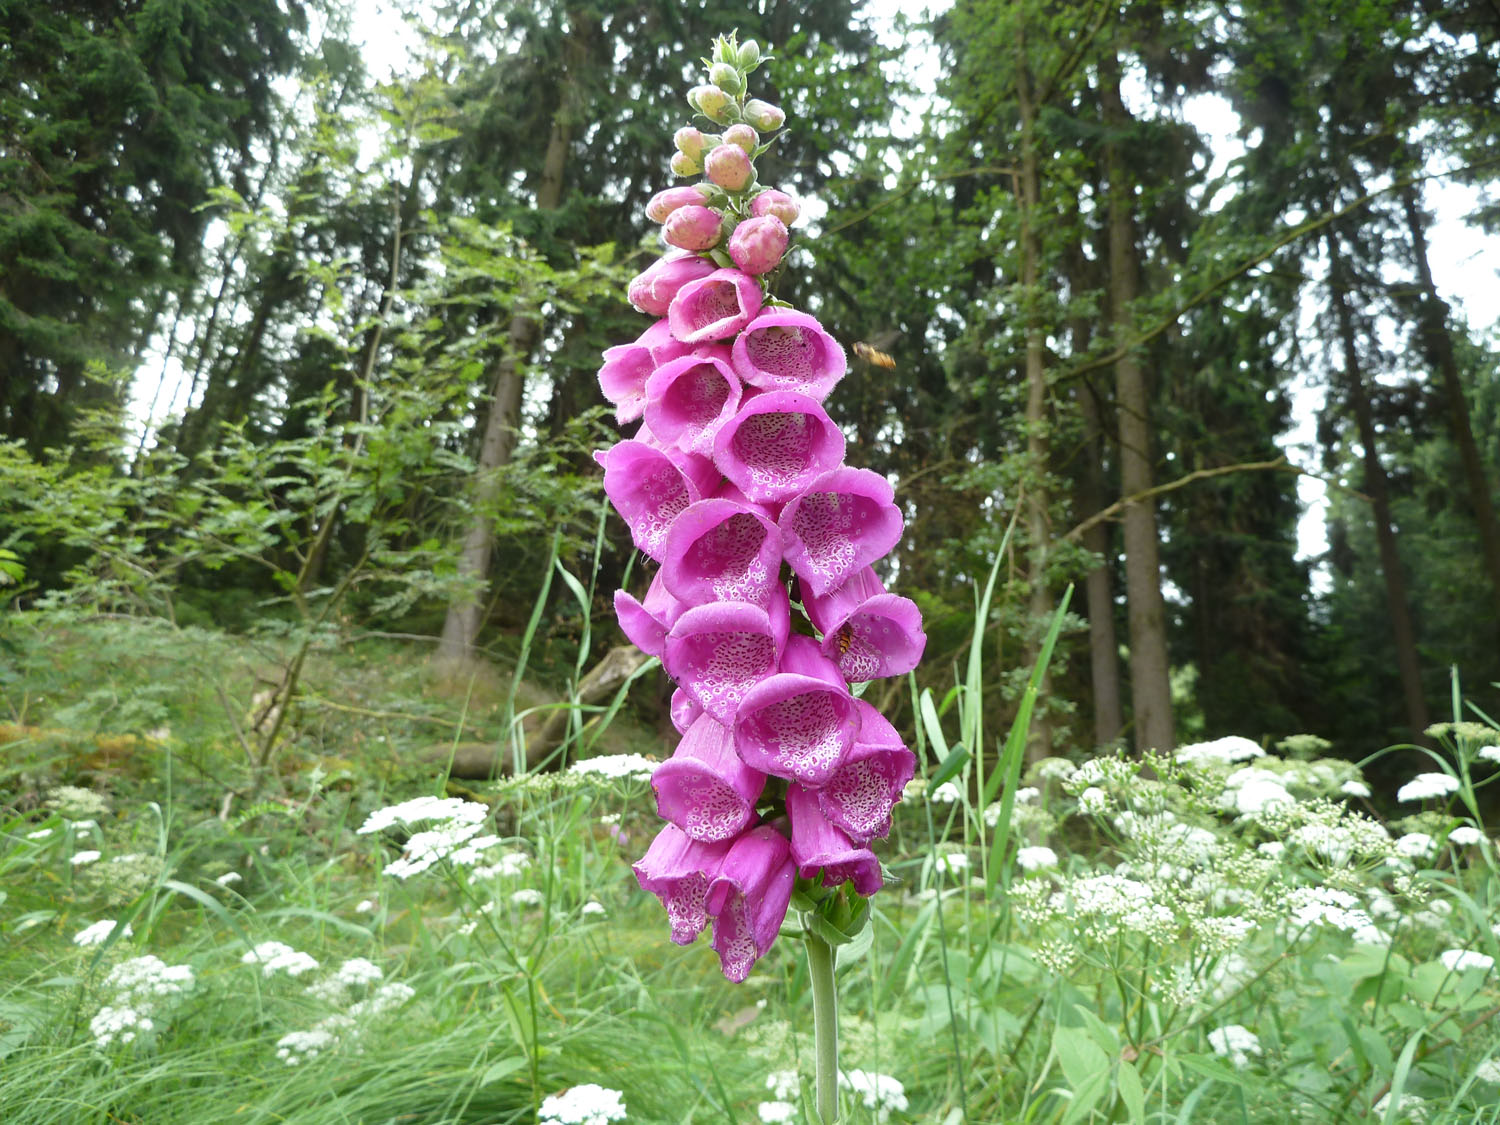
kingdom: Plantae
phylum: Tracheophyta
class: Magnoliopsida
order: Lamiales
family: Plantaginaceae
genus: Digitalis
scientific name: Digitalis purpurea
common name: Foxglove
